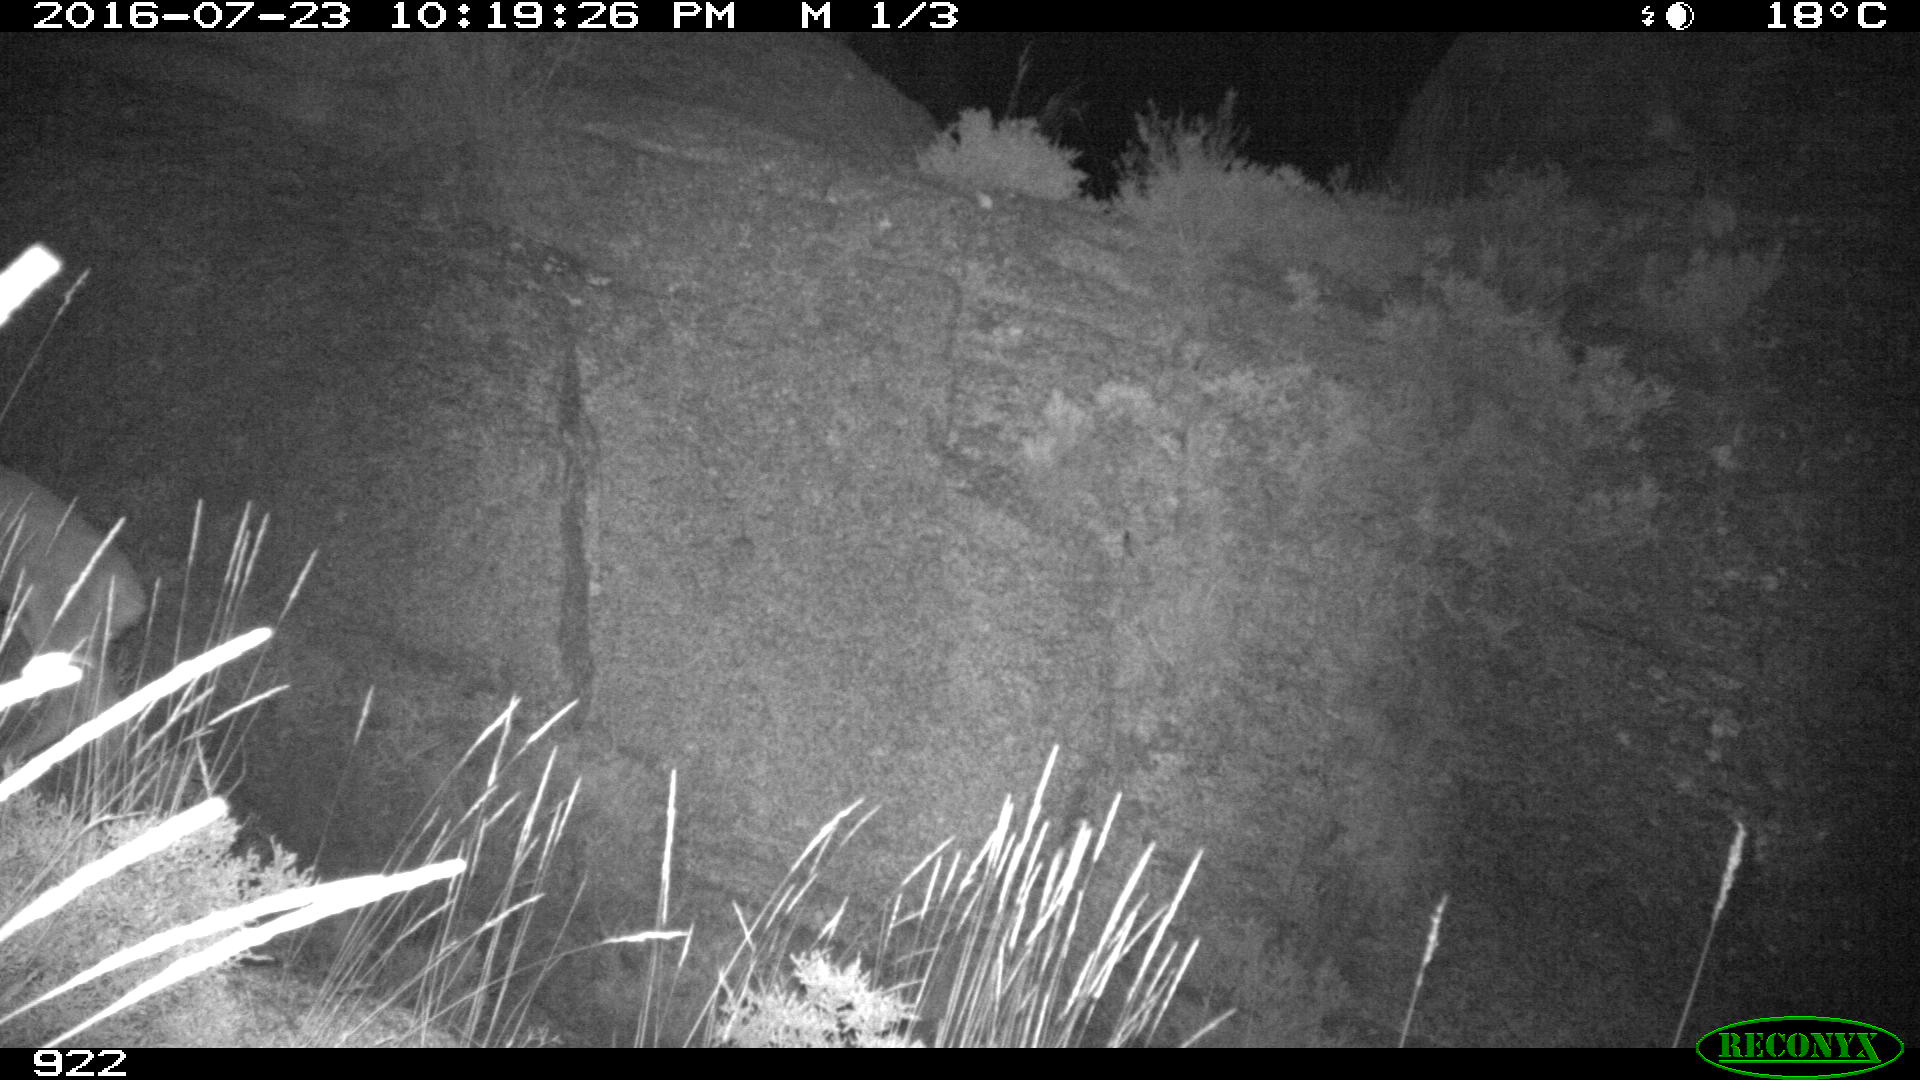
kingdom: Animalia
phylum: Chordata
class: Mammalia
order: Artiodactyla
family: Cervidae
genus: Capreolus
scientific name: Capreolus capreolus
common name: Western roe deer
